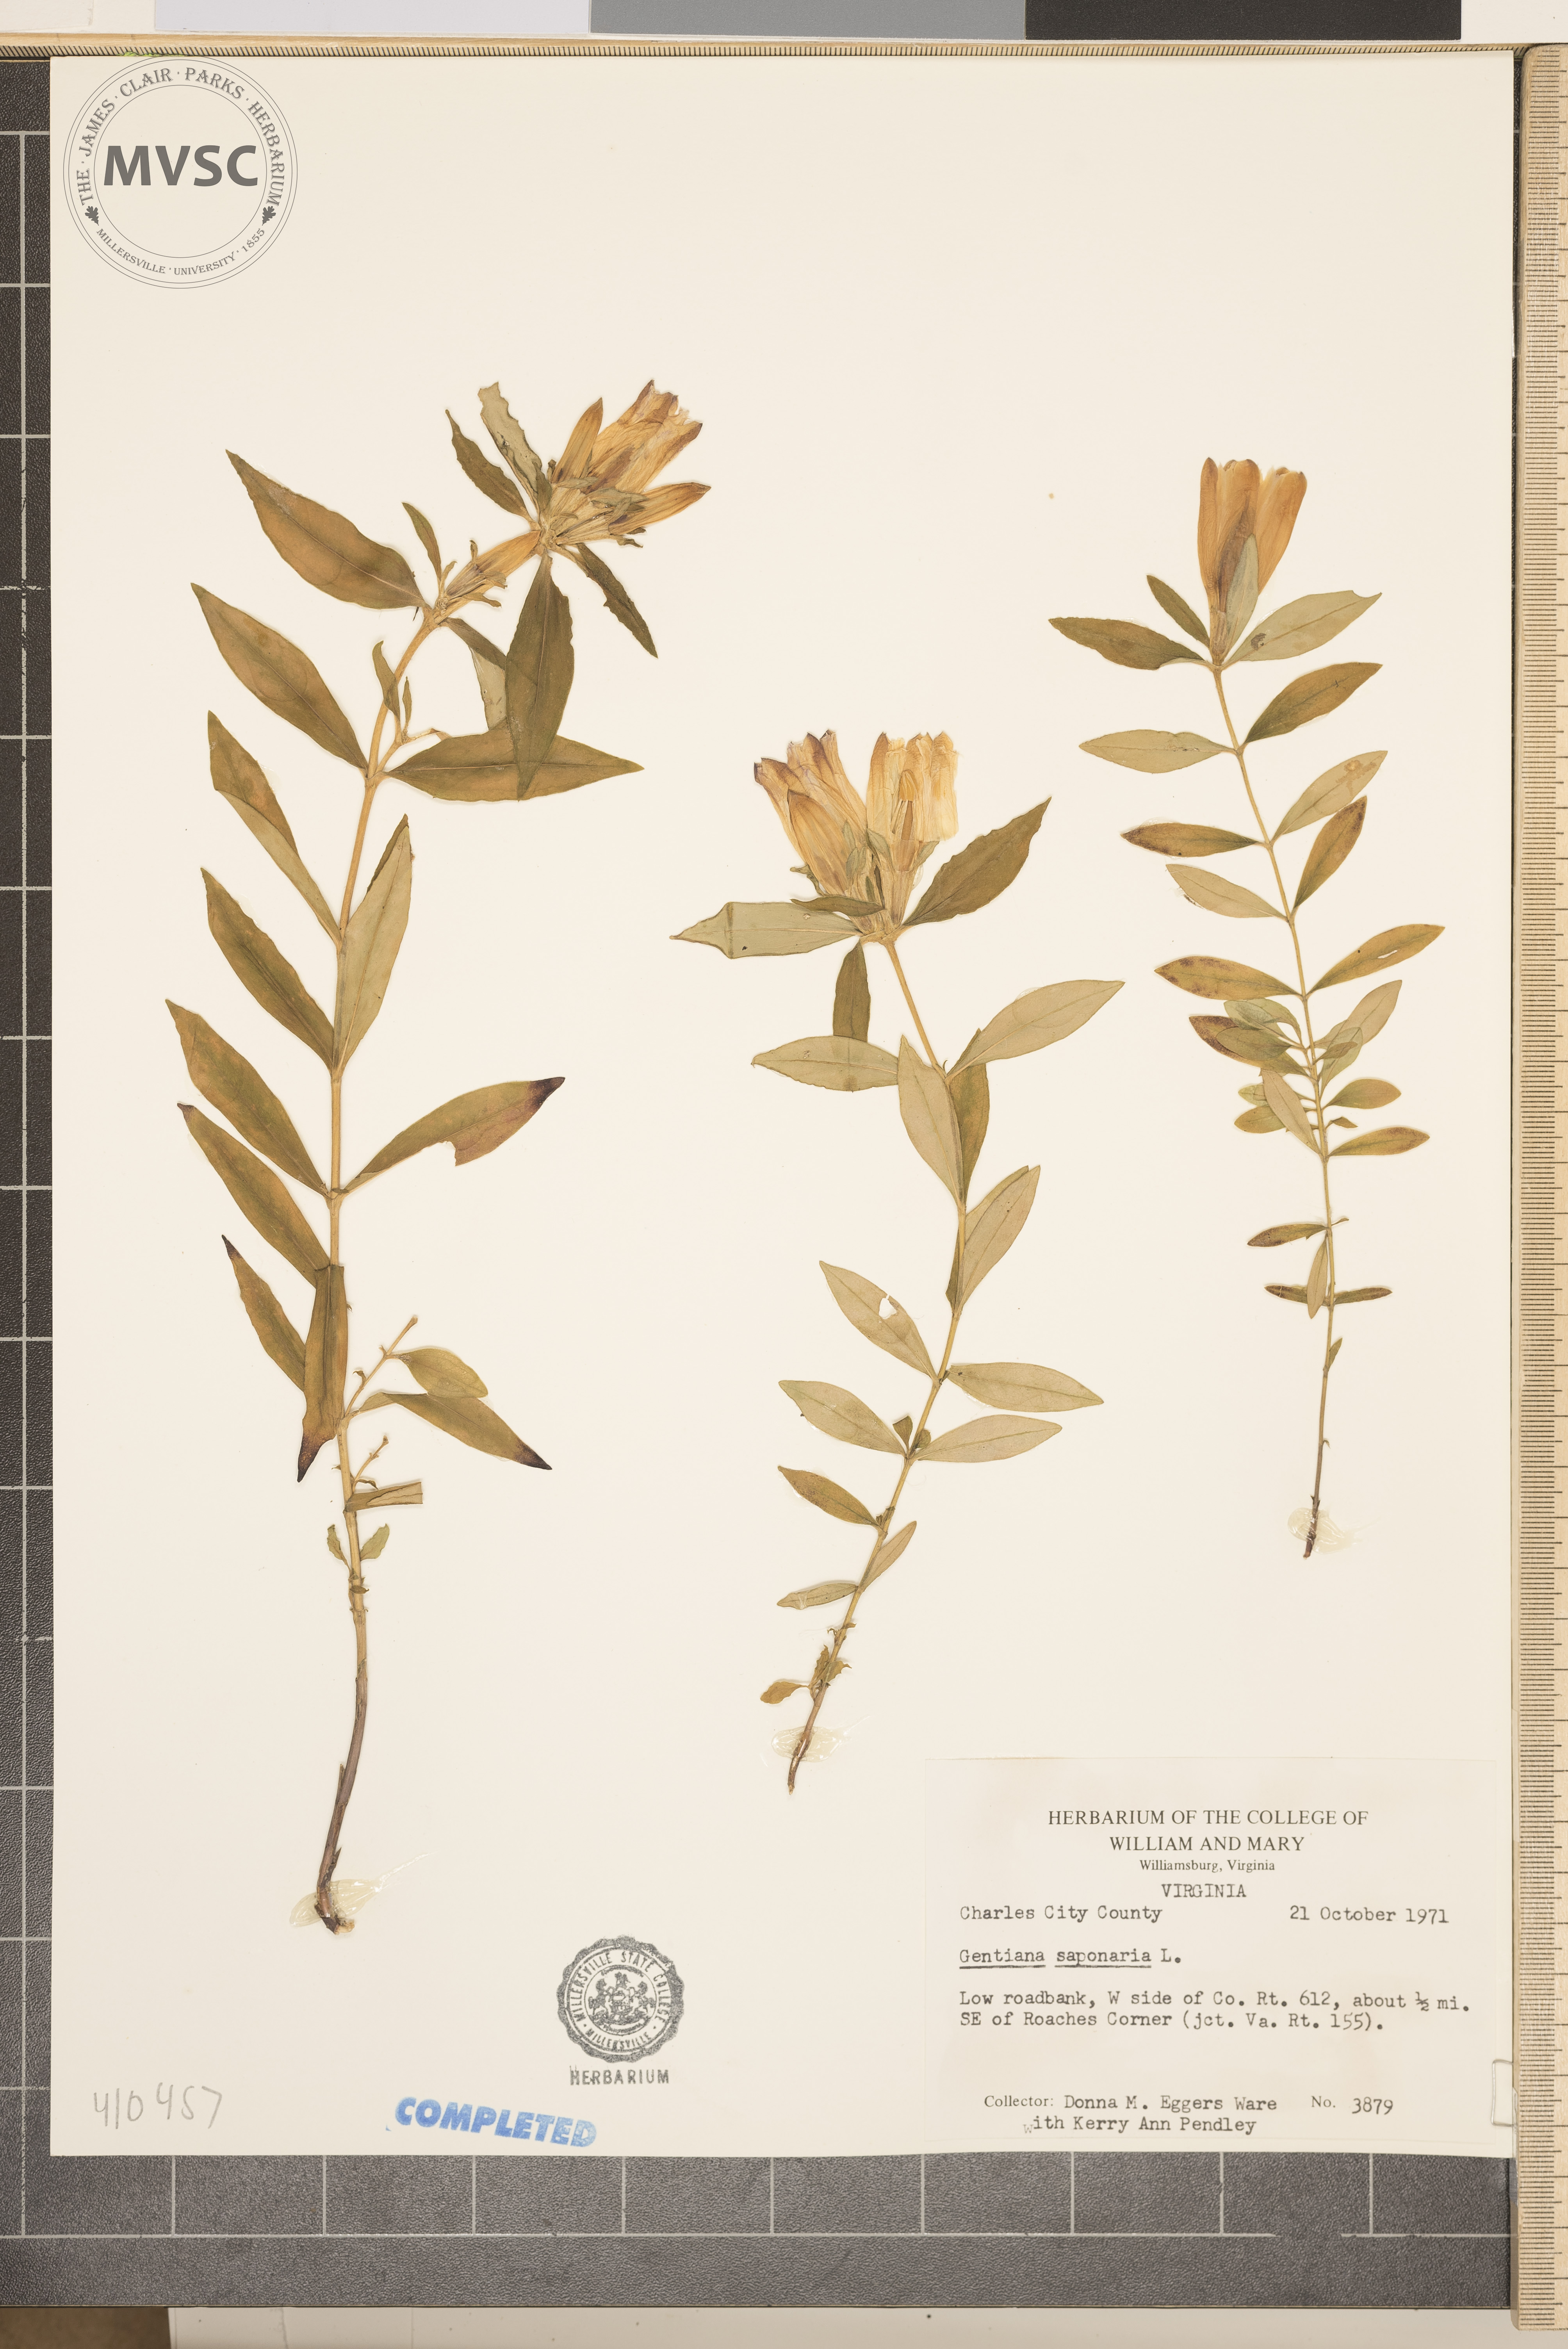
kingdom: Plantae
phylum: Tracheophyta
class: Magnoliopsida
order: Gentianales
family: Gentianaceae
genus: Gentiana
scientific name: Gentiana saponaria
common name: Soapwort gentian
